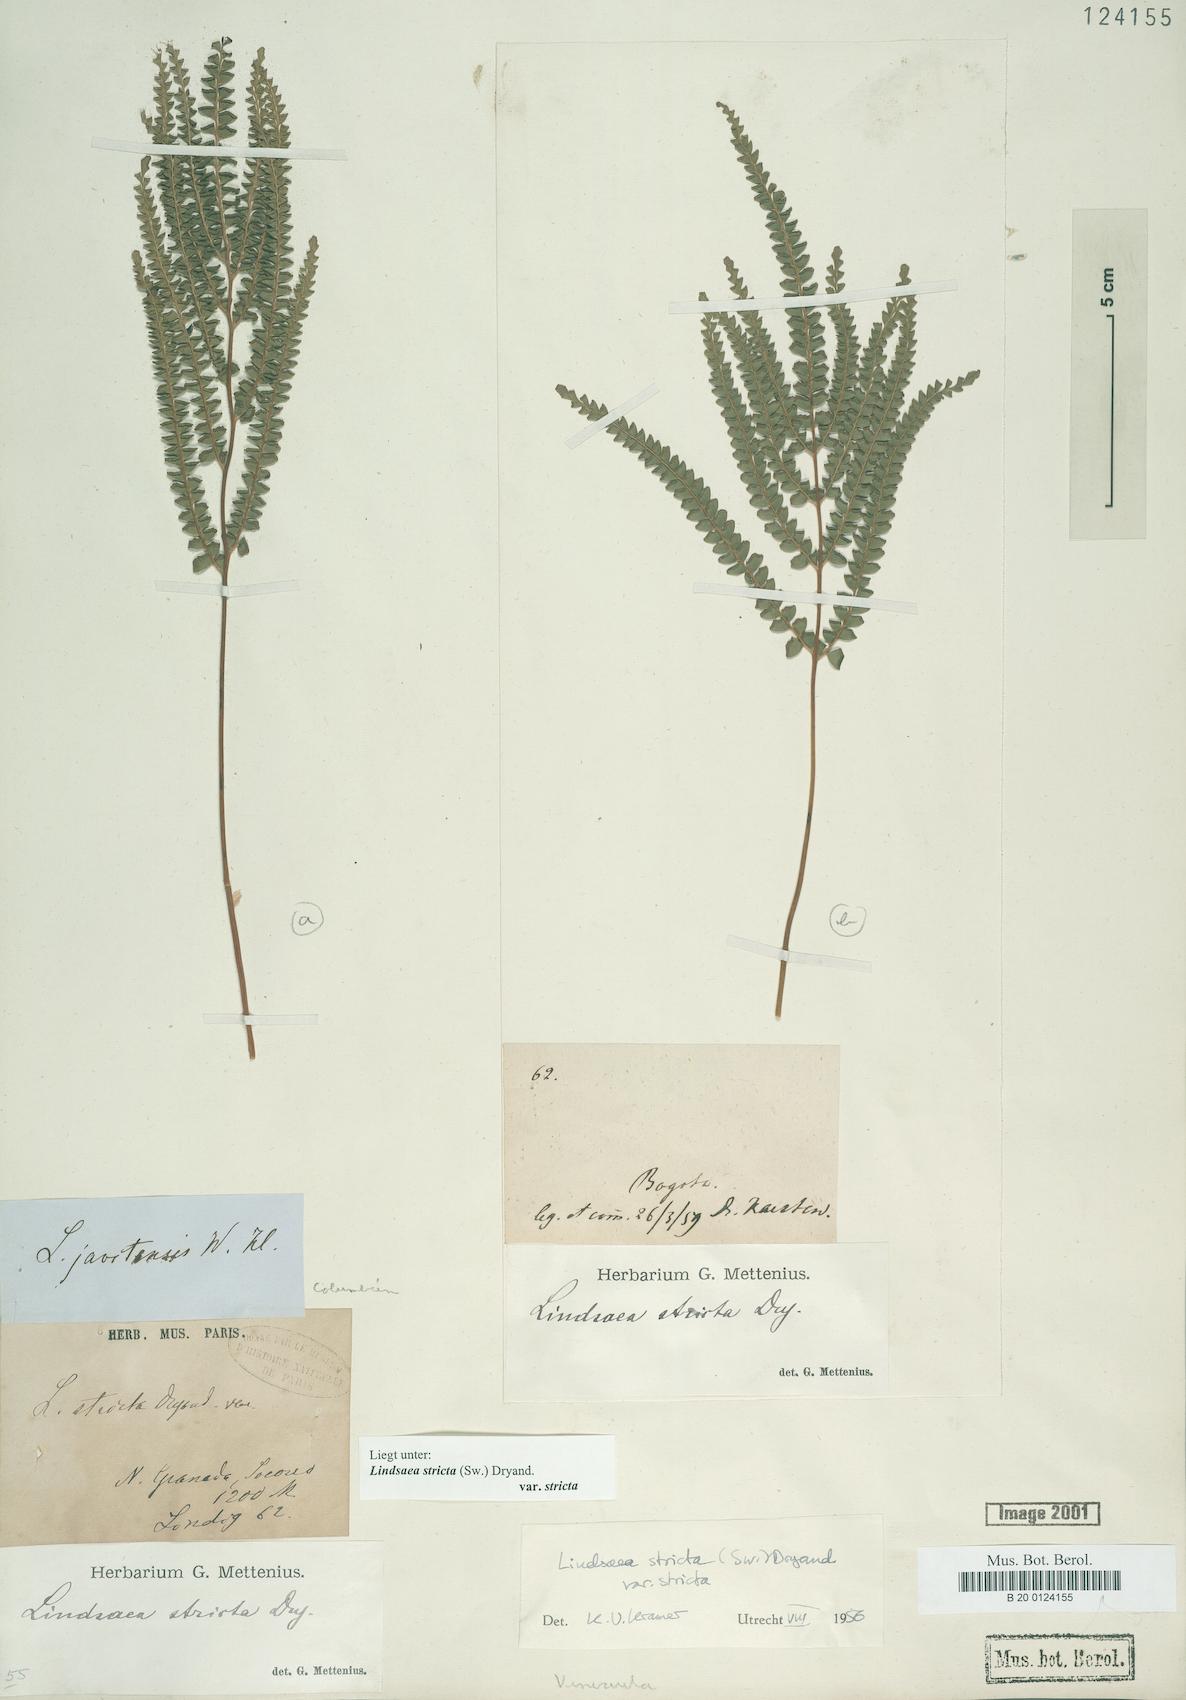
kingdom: Plantae
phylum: Tracheophyta
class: Polypodiopsida
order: Polypodiales
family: Lindsaeaceae
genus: Lindsaea
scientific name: Lindsaea stricta
